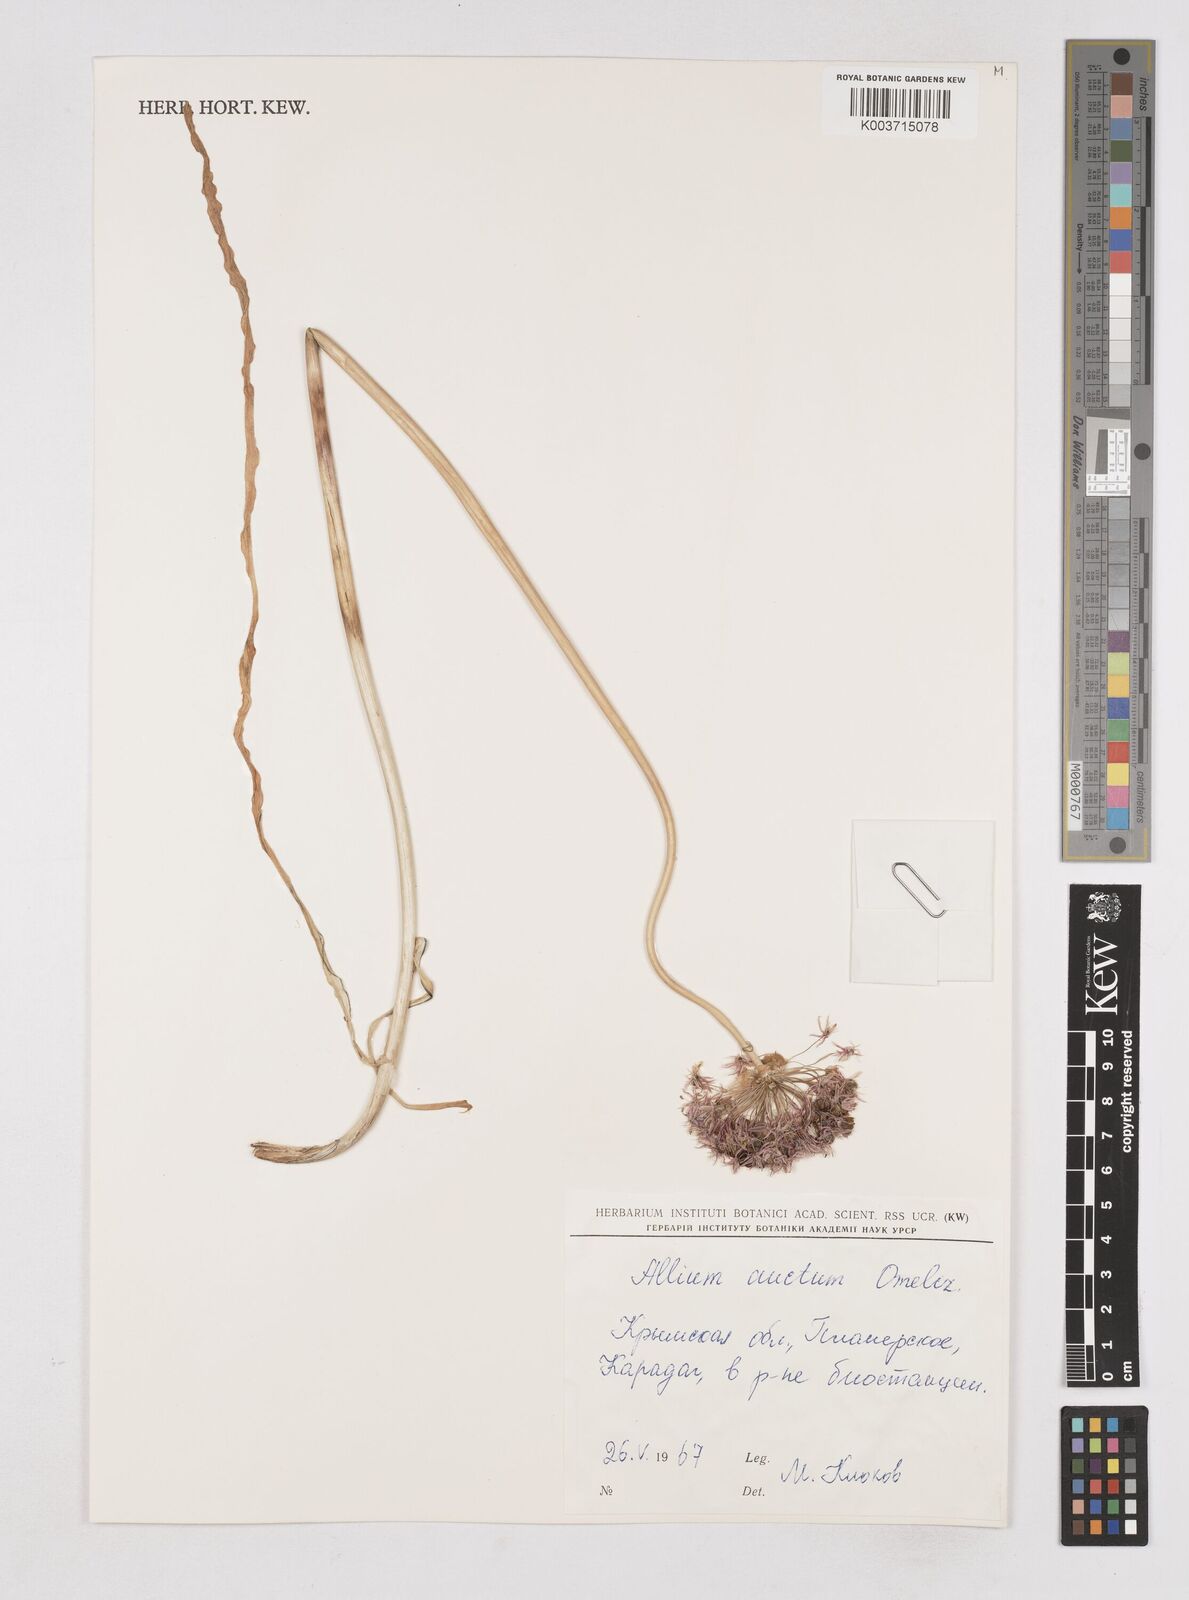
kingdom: Plantae
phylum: Tracheophyta
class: Liliopsida
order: Asparagales
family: Amaryllidaceae
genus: Allium
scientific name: Allium decipiens
